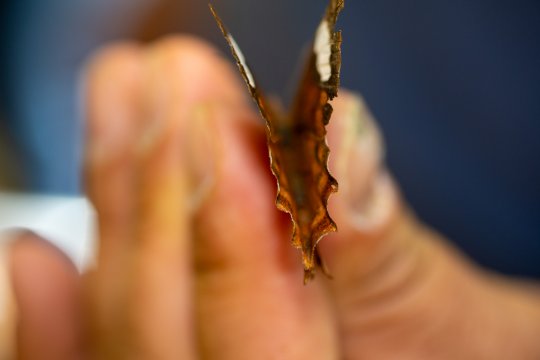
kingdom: Animalia
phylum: Arthropoda
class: Insecta
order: Lepidoptera
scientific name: Lepidoptera
